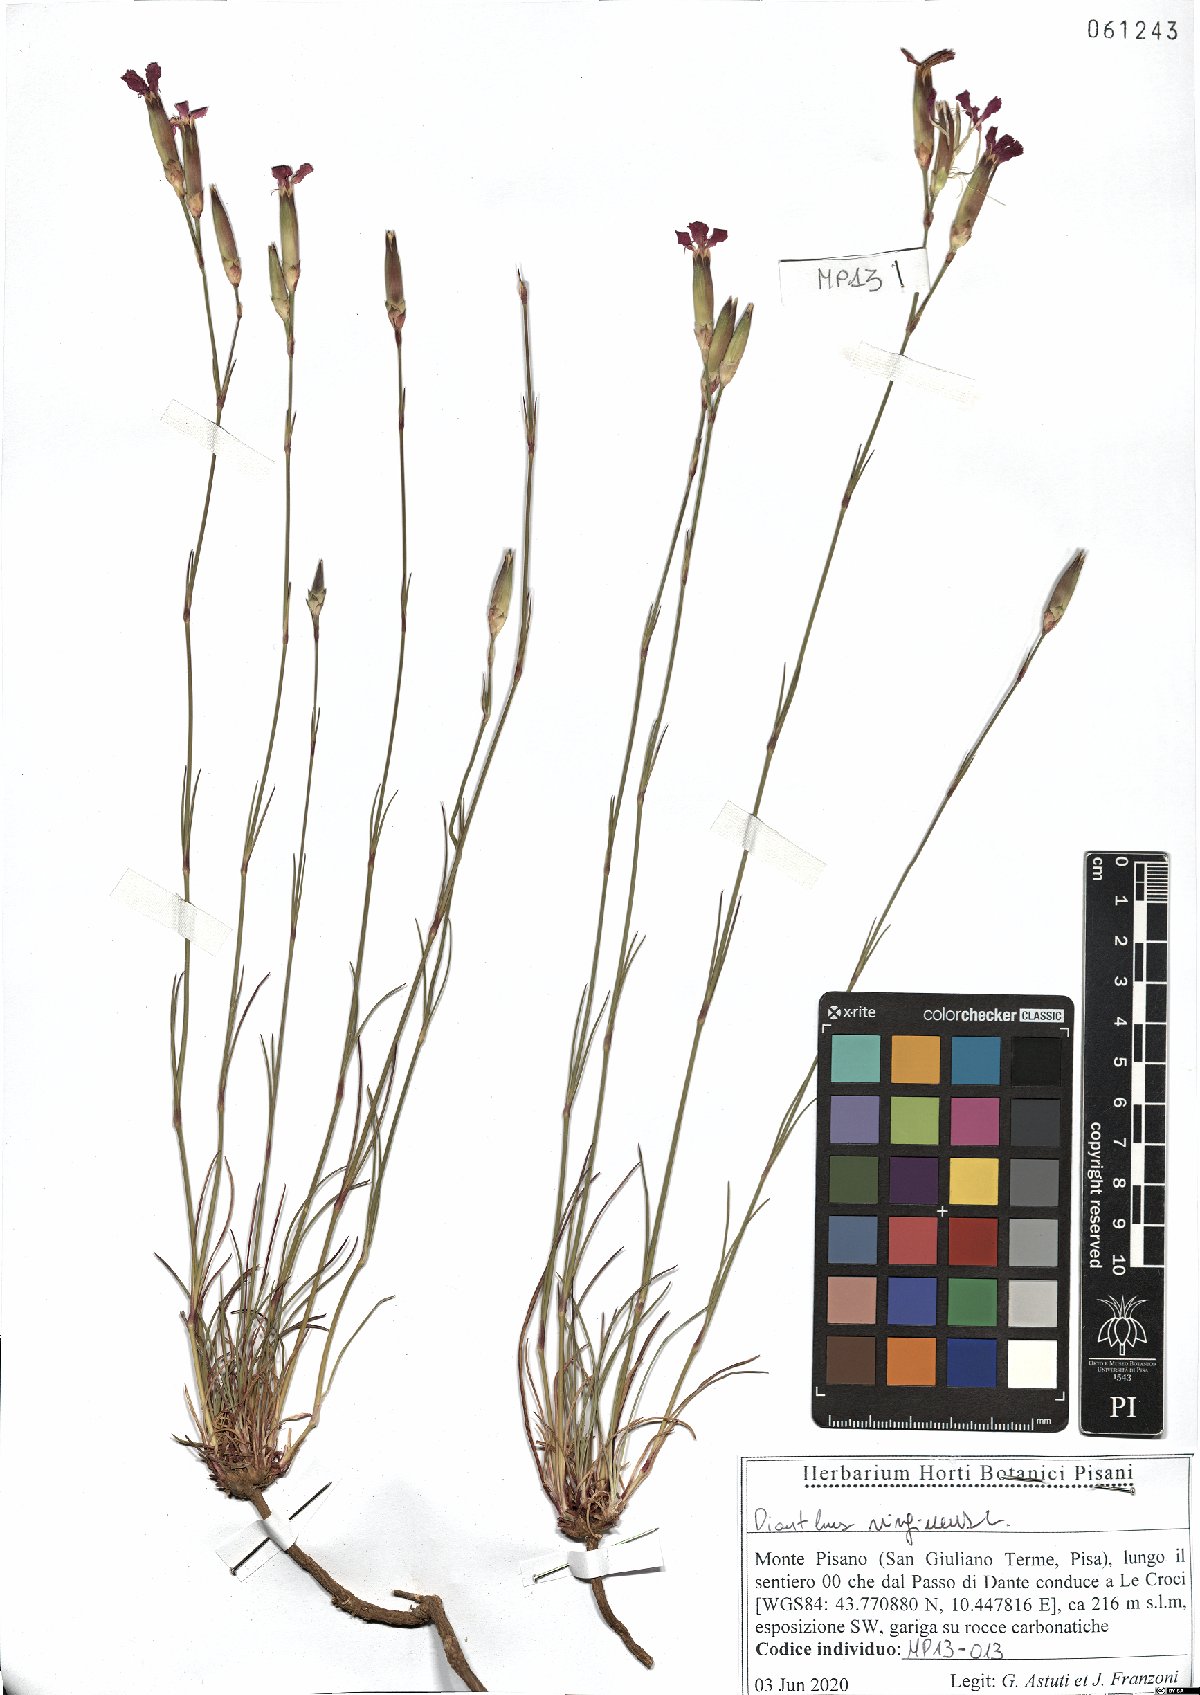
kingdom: Plantae
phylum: Tracheophyta
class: Magnoliopsida
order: Caryophyllales
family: Caryophyllaceae
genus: Dianthus
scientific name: Dianthus virgineus
